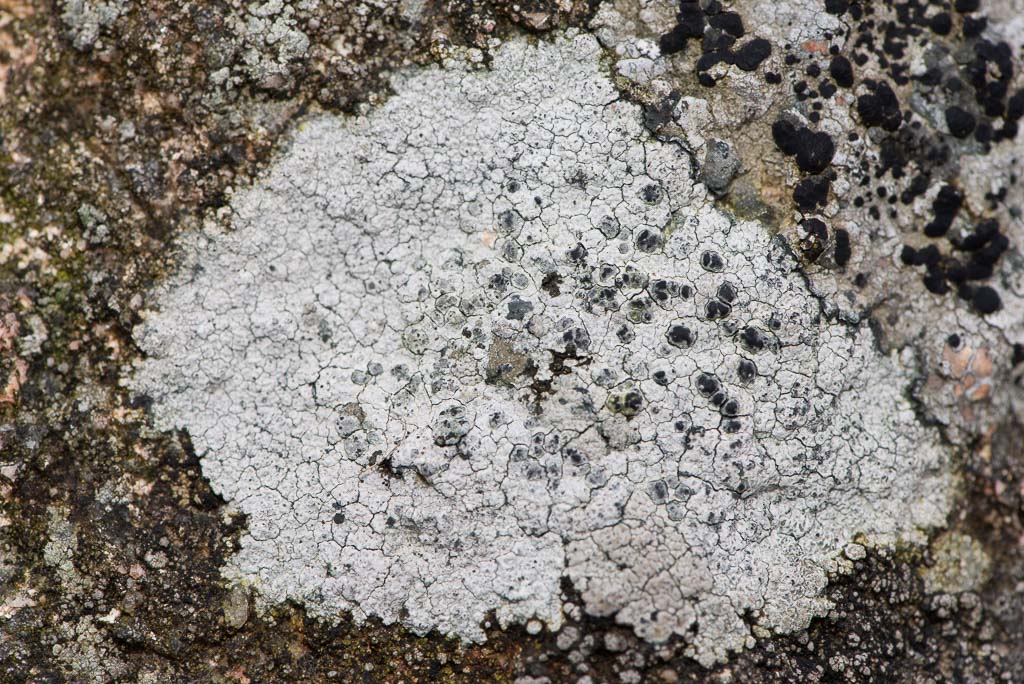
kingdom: Fungi
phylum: Ascomycota
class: Arthoniomycetes
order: Arthoniales
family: Arthoniaceae
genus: Arthonia
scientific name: Arthonia varians
